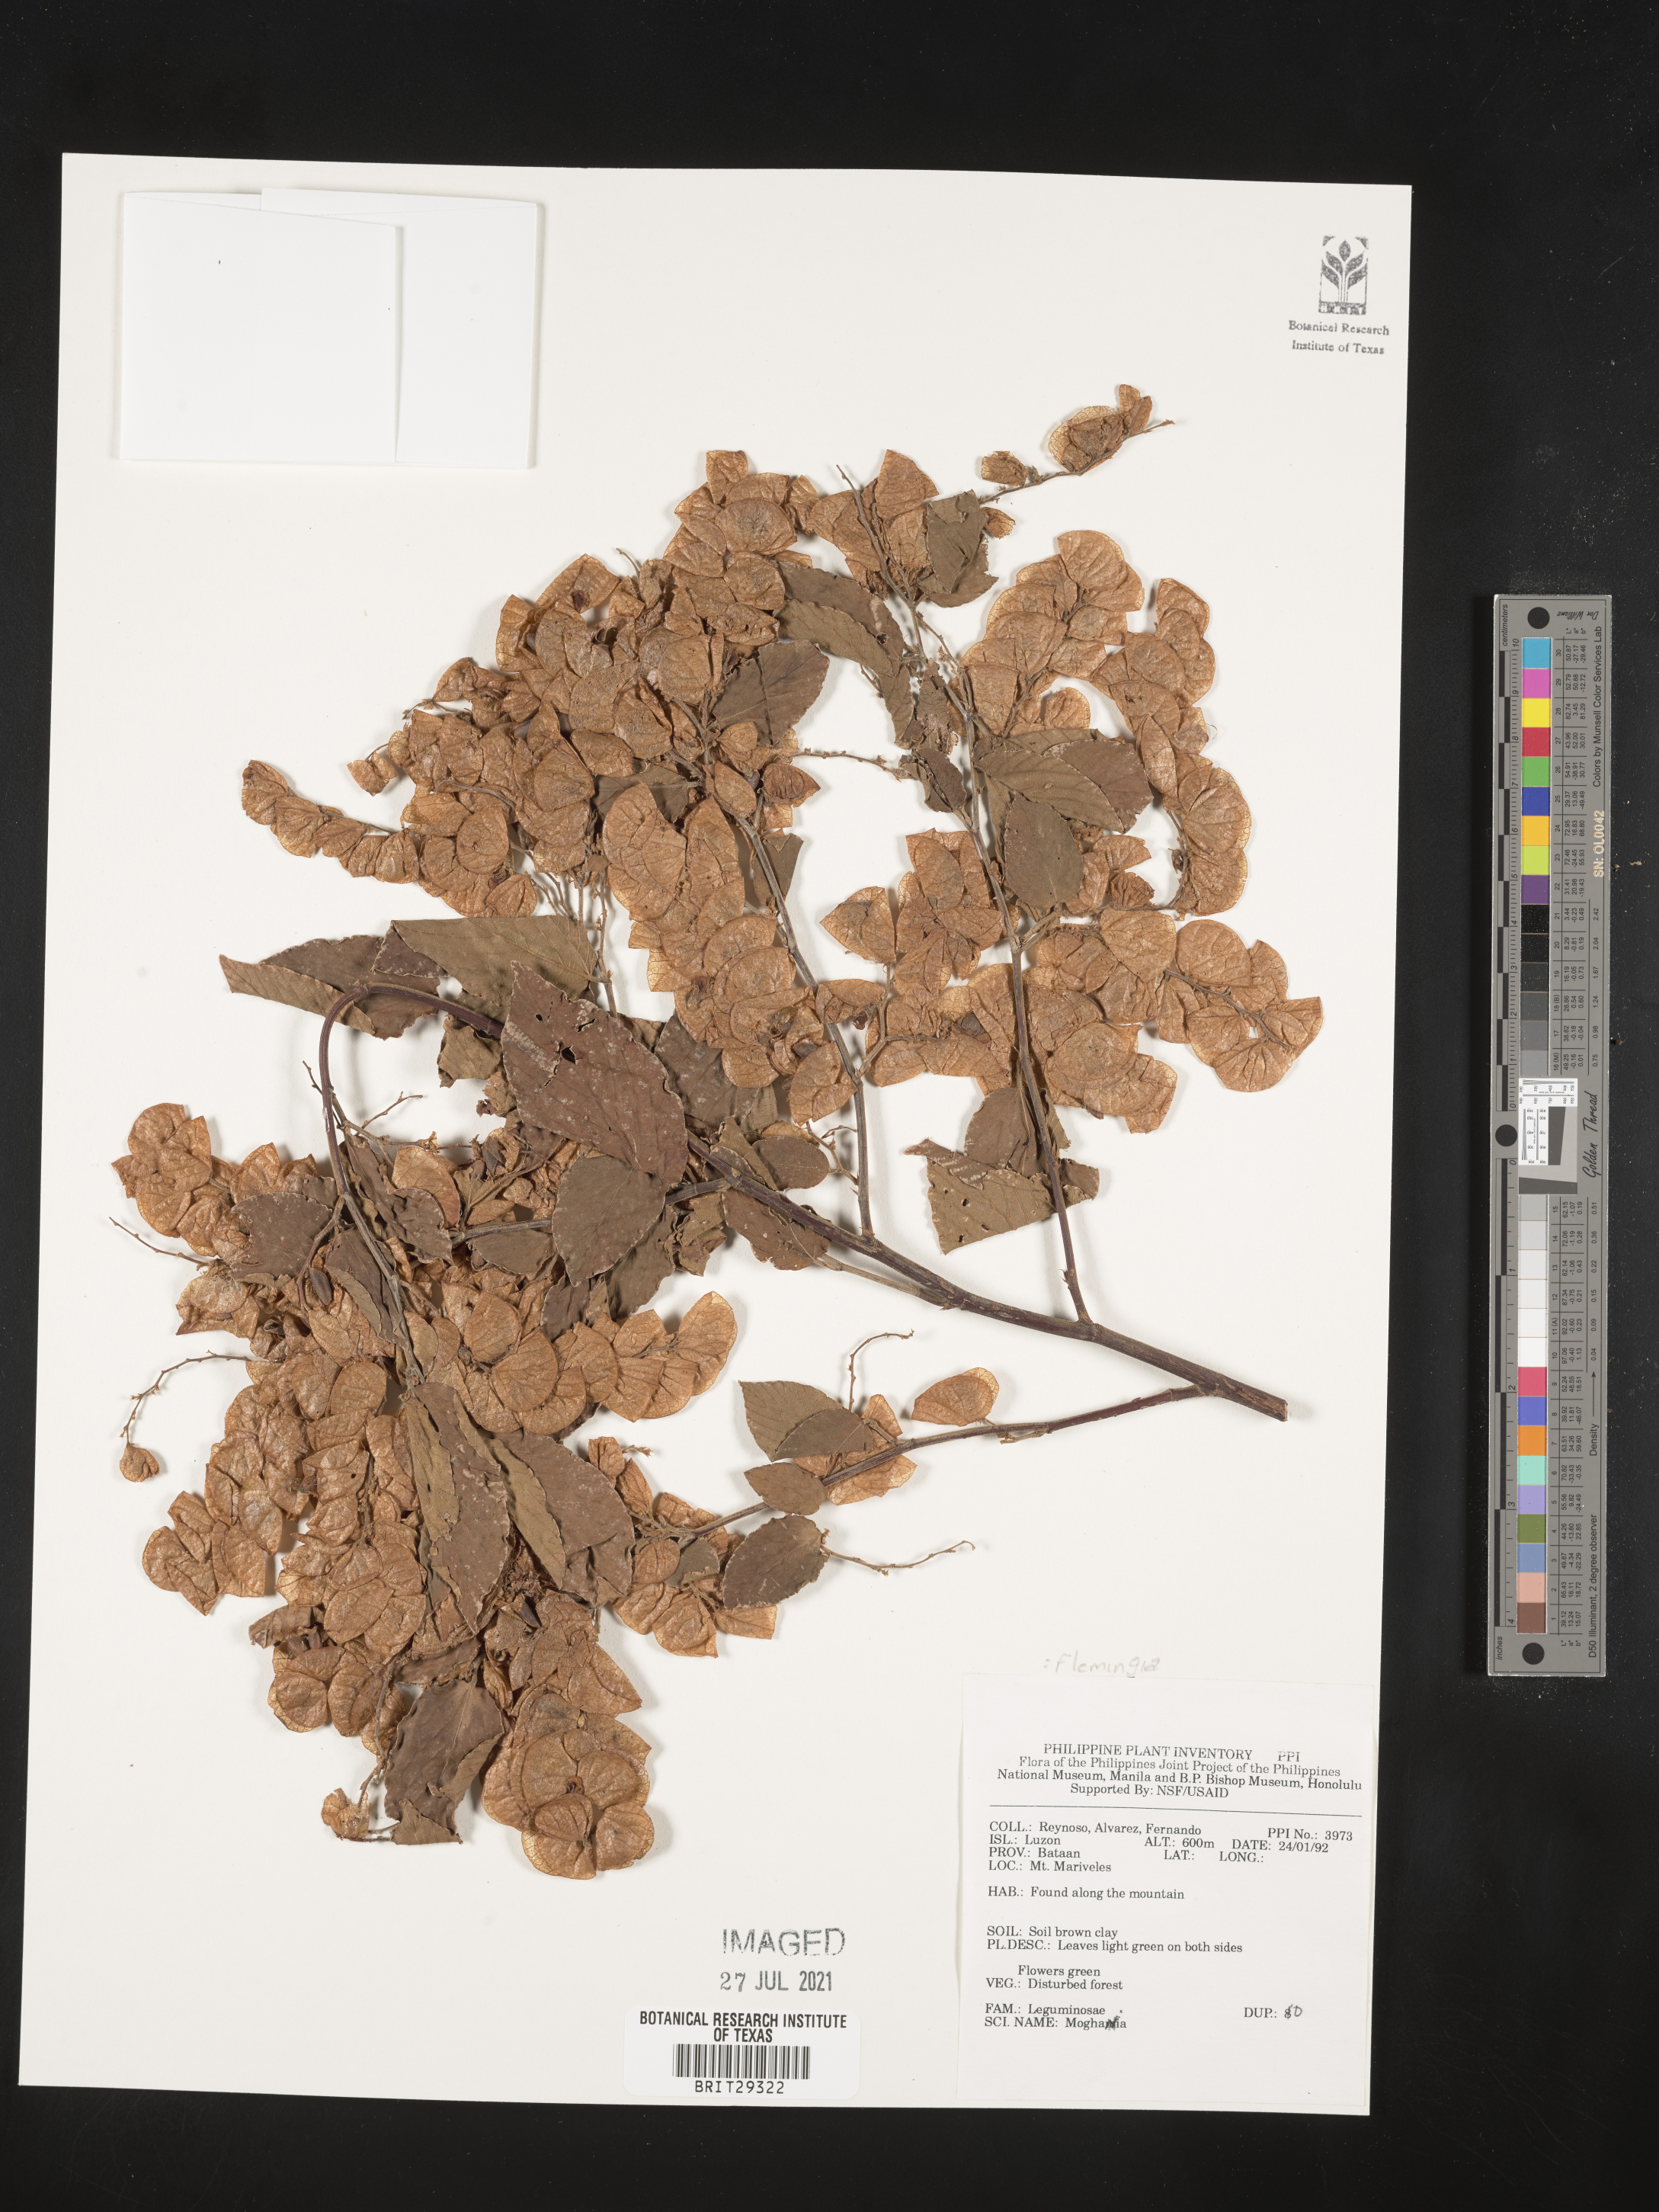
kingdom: Plantae
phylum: Tracheophyta
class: Magnoliopsida
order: Fabales
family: Fabaceae
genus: Flemingia
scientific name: Flemingia
